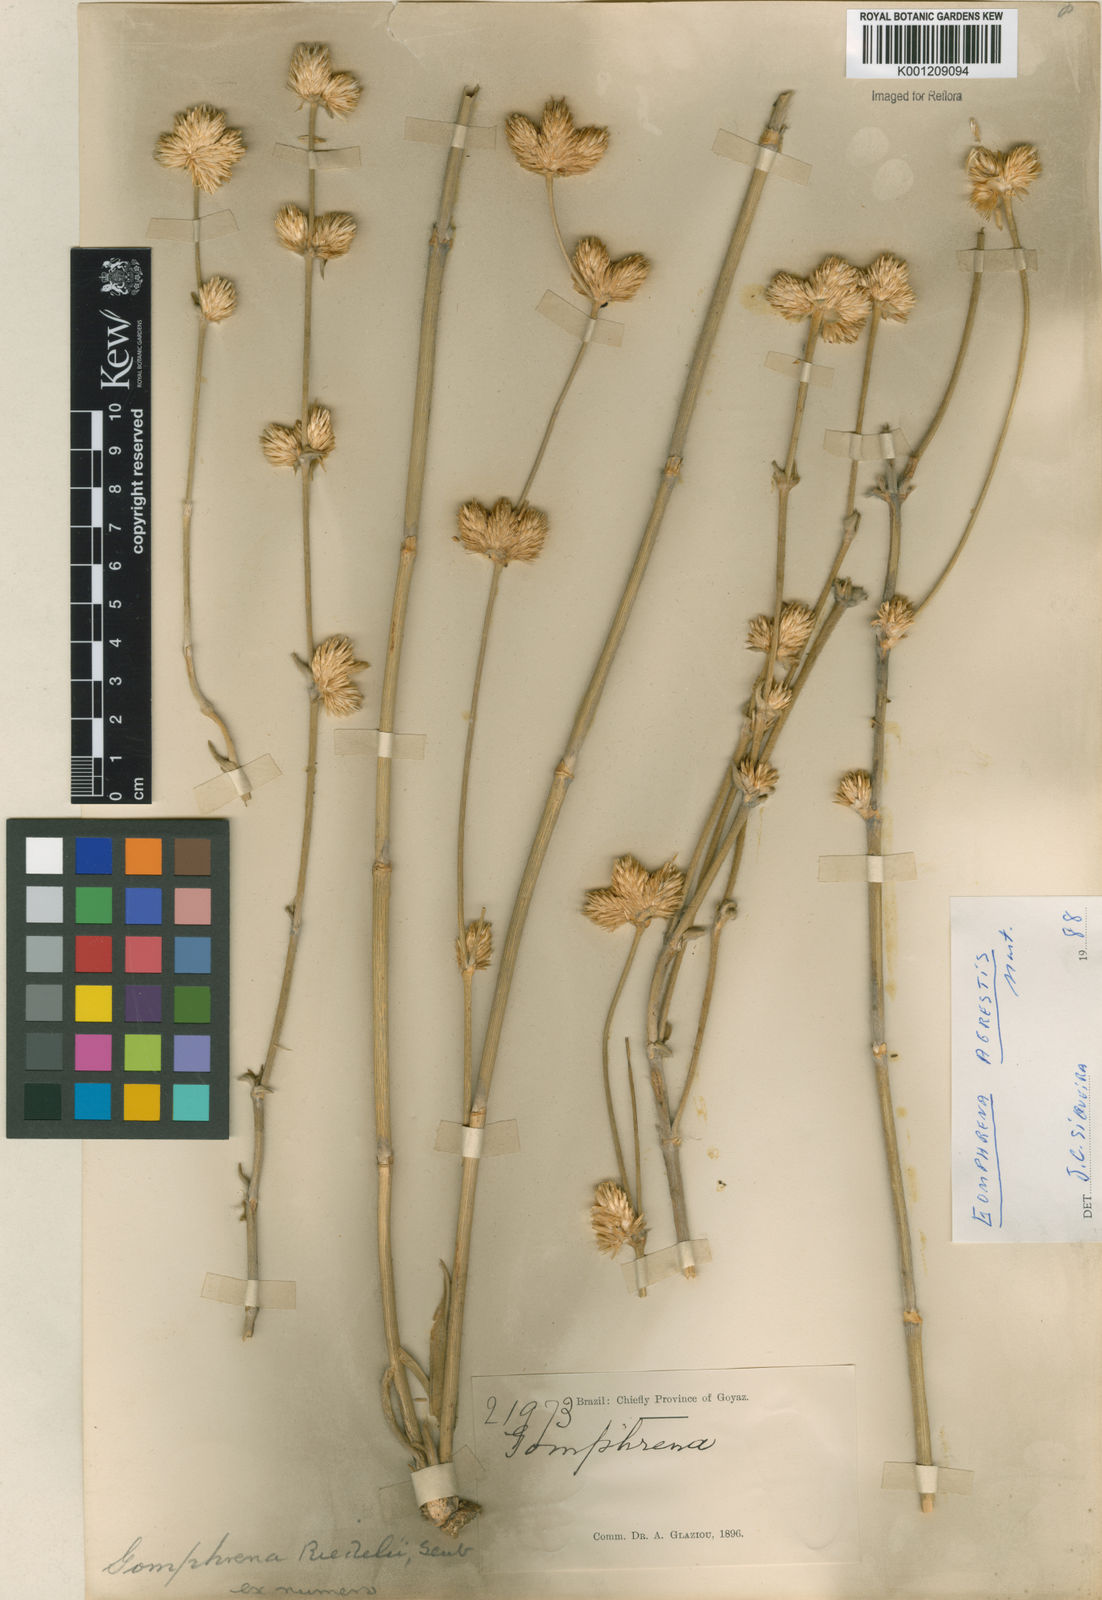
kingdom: Plantae
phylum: Tracheophyta
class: Magnoliopsida
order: Caryophyllales
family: Amaranthaceae
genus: Gomphrena
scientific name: Gomphrena riedelii
